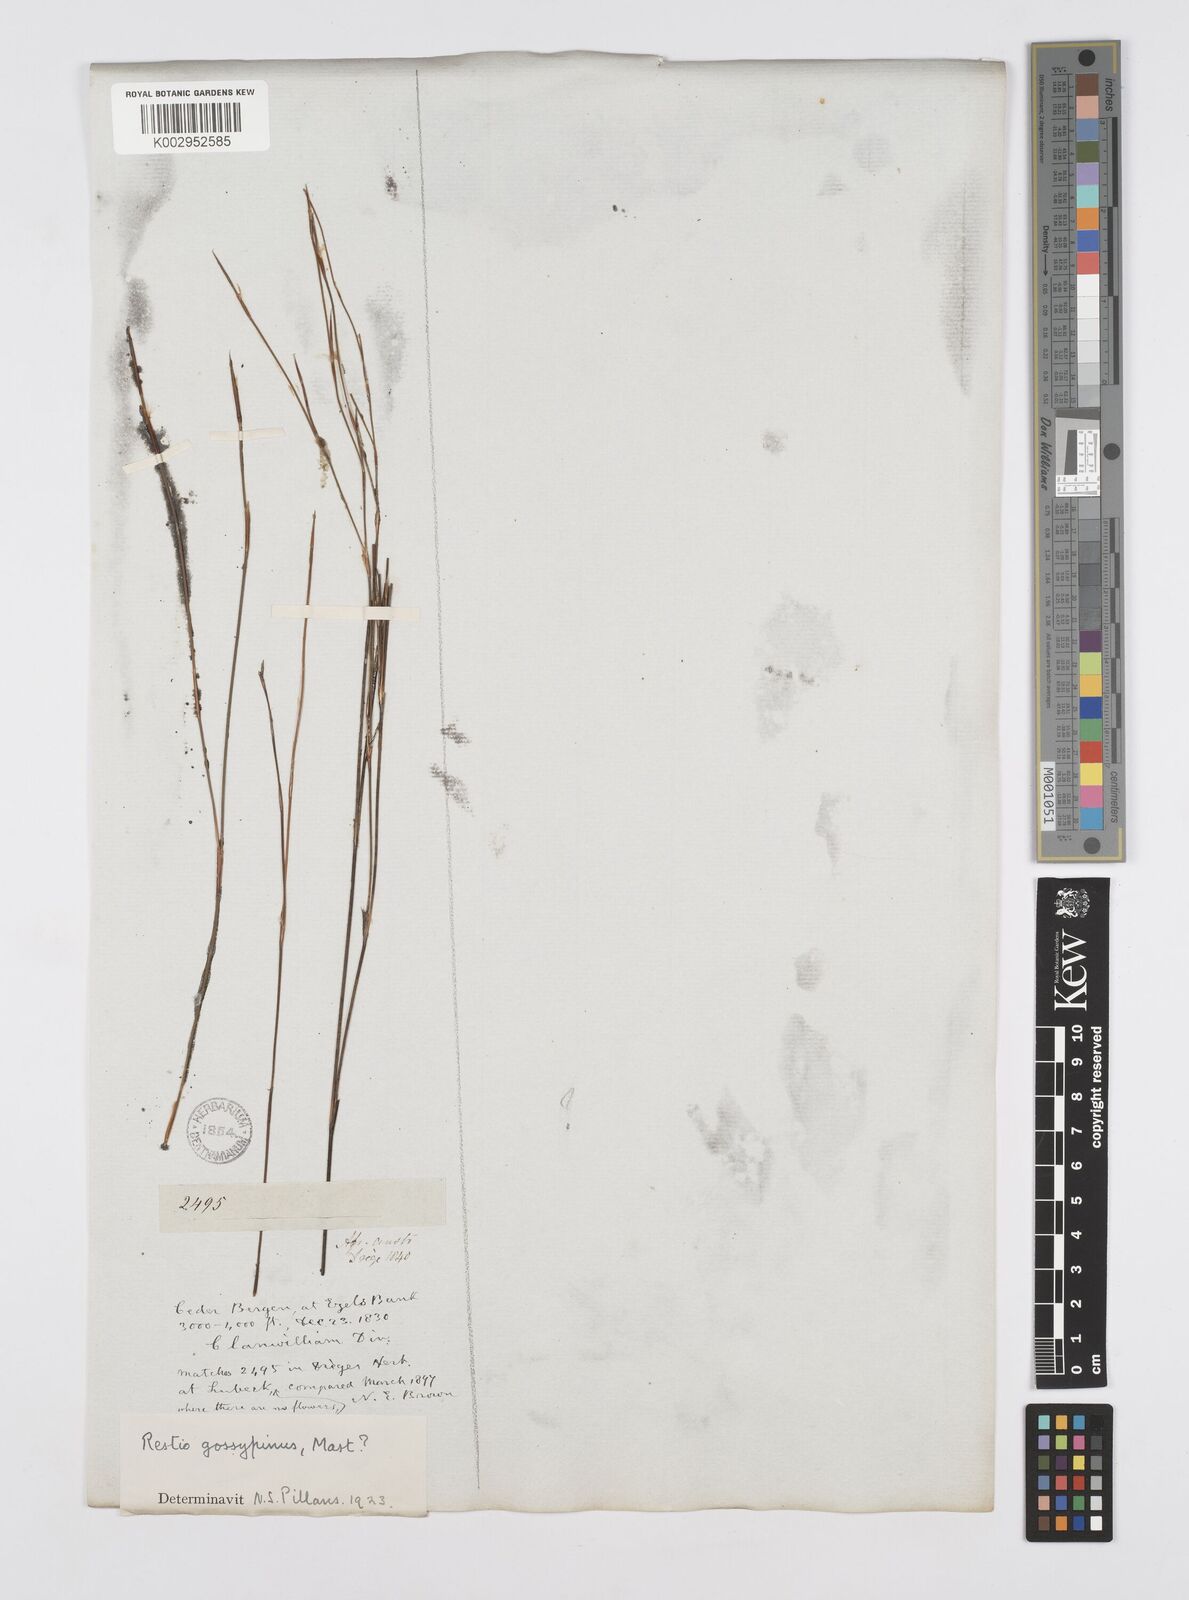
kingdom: Plantae
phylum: Tracheophyta
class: Liliopsida
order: Poales
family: Restionaceae
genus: Restio
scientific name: Restio gossypinus
